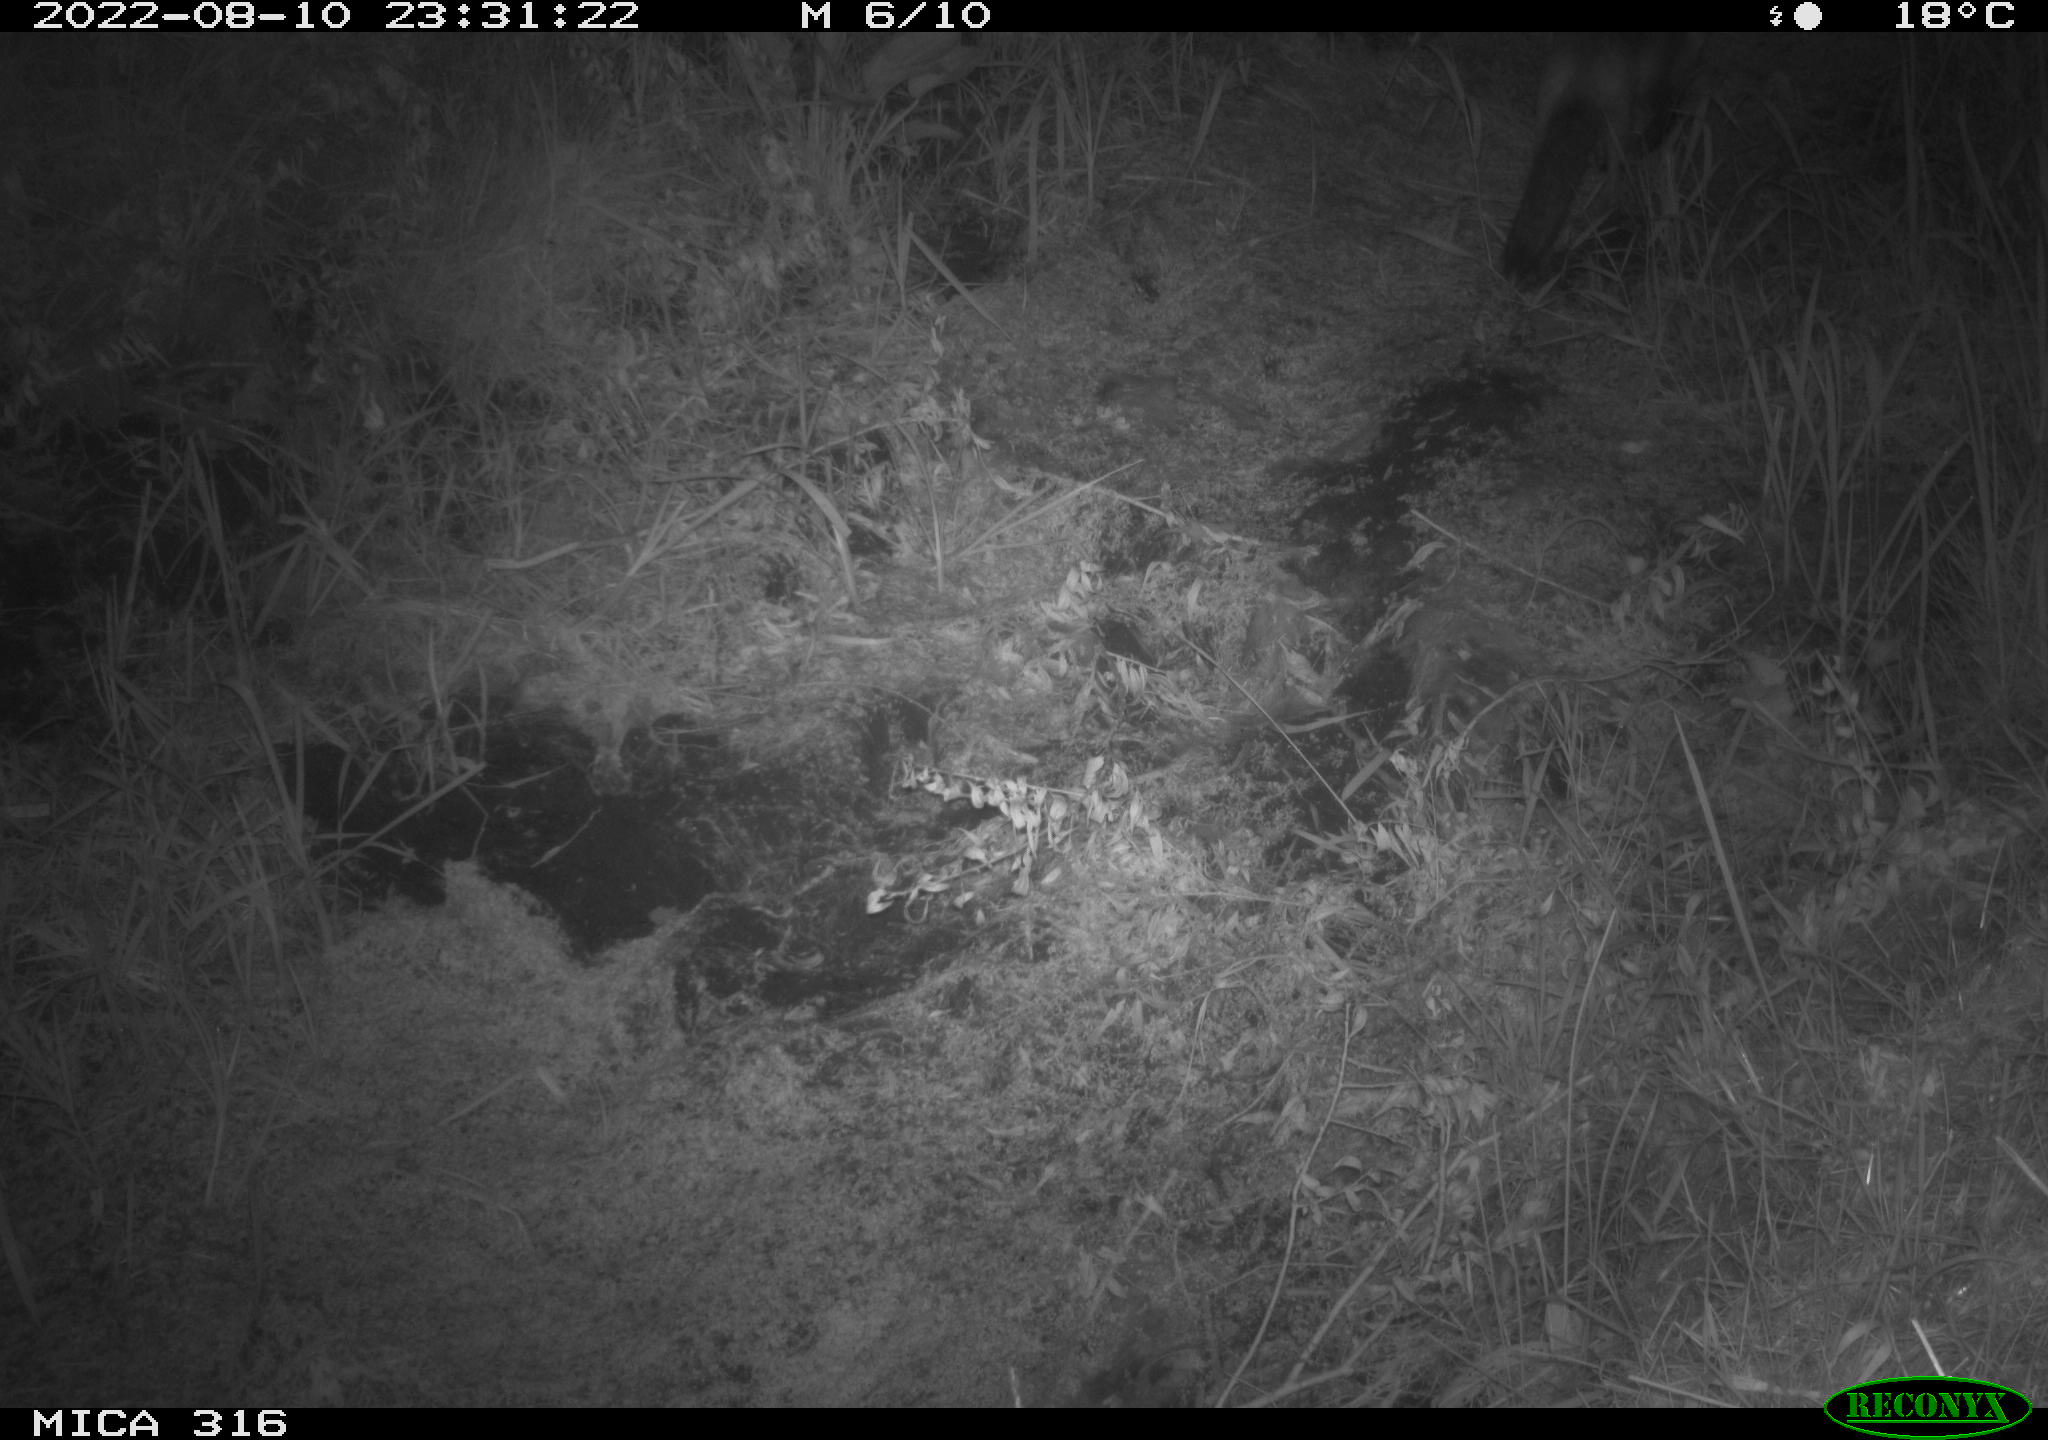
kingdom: Animalia
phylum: Chordata
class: Mammalia
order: Carnivora
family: Canidae
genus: Vulpes
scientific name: Vulpes vulpes
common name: Red fox
